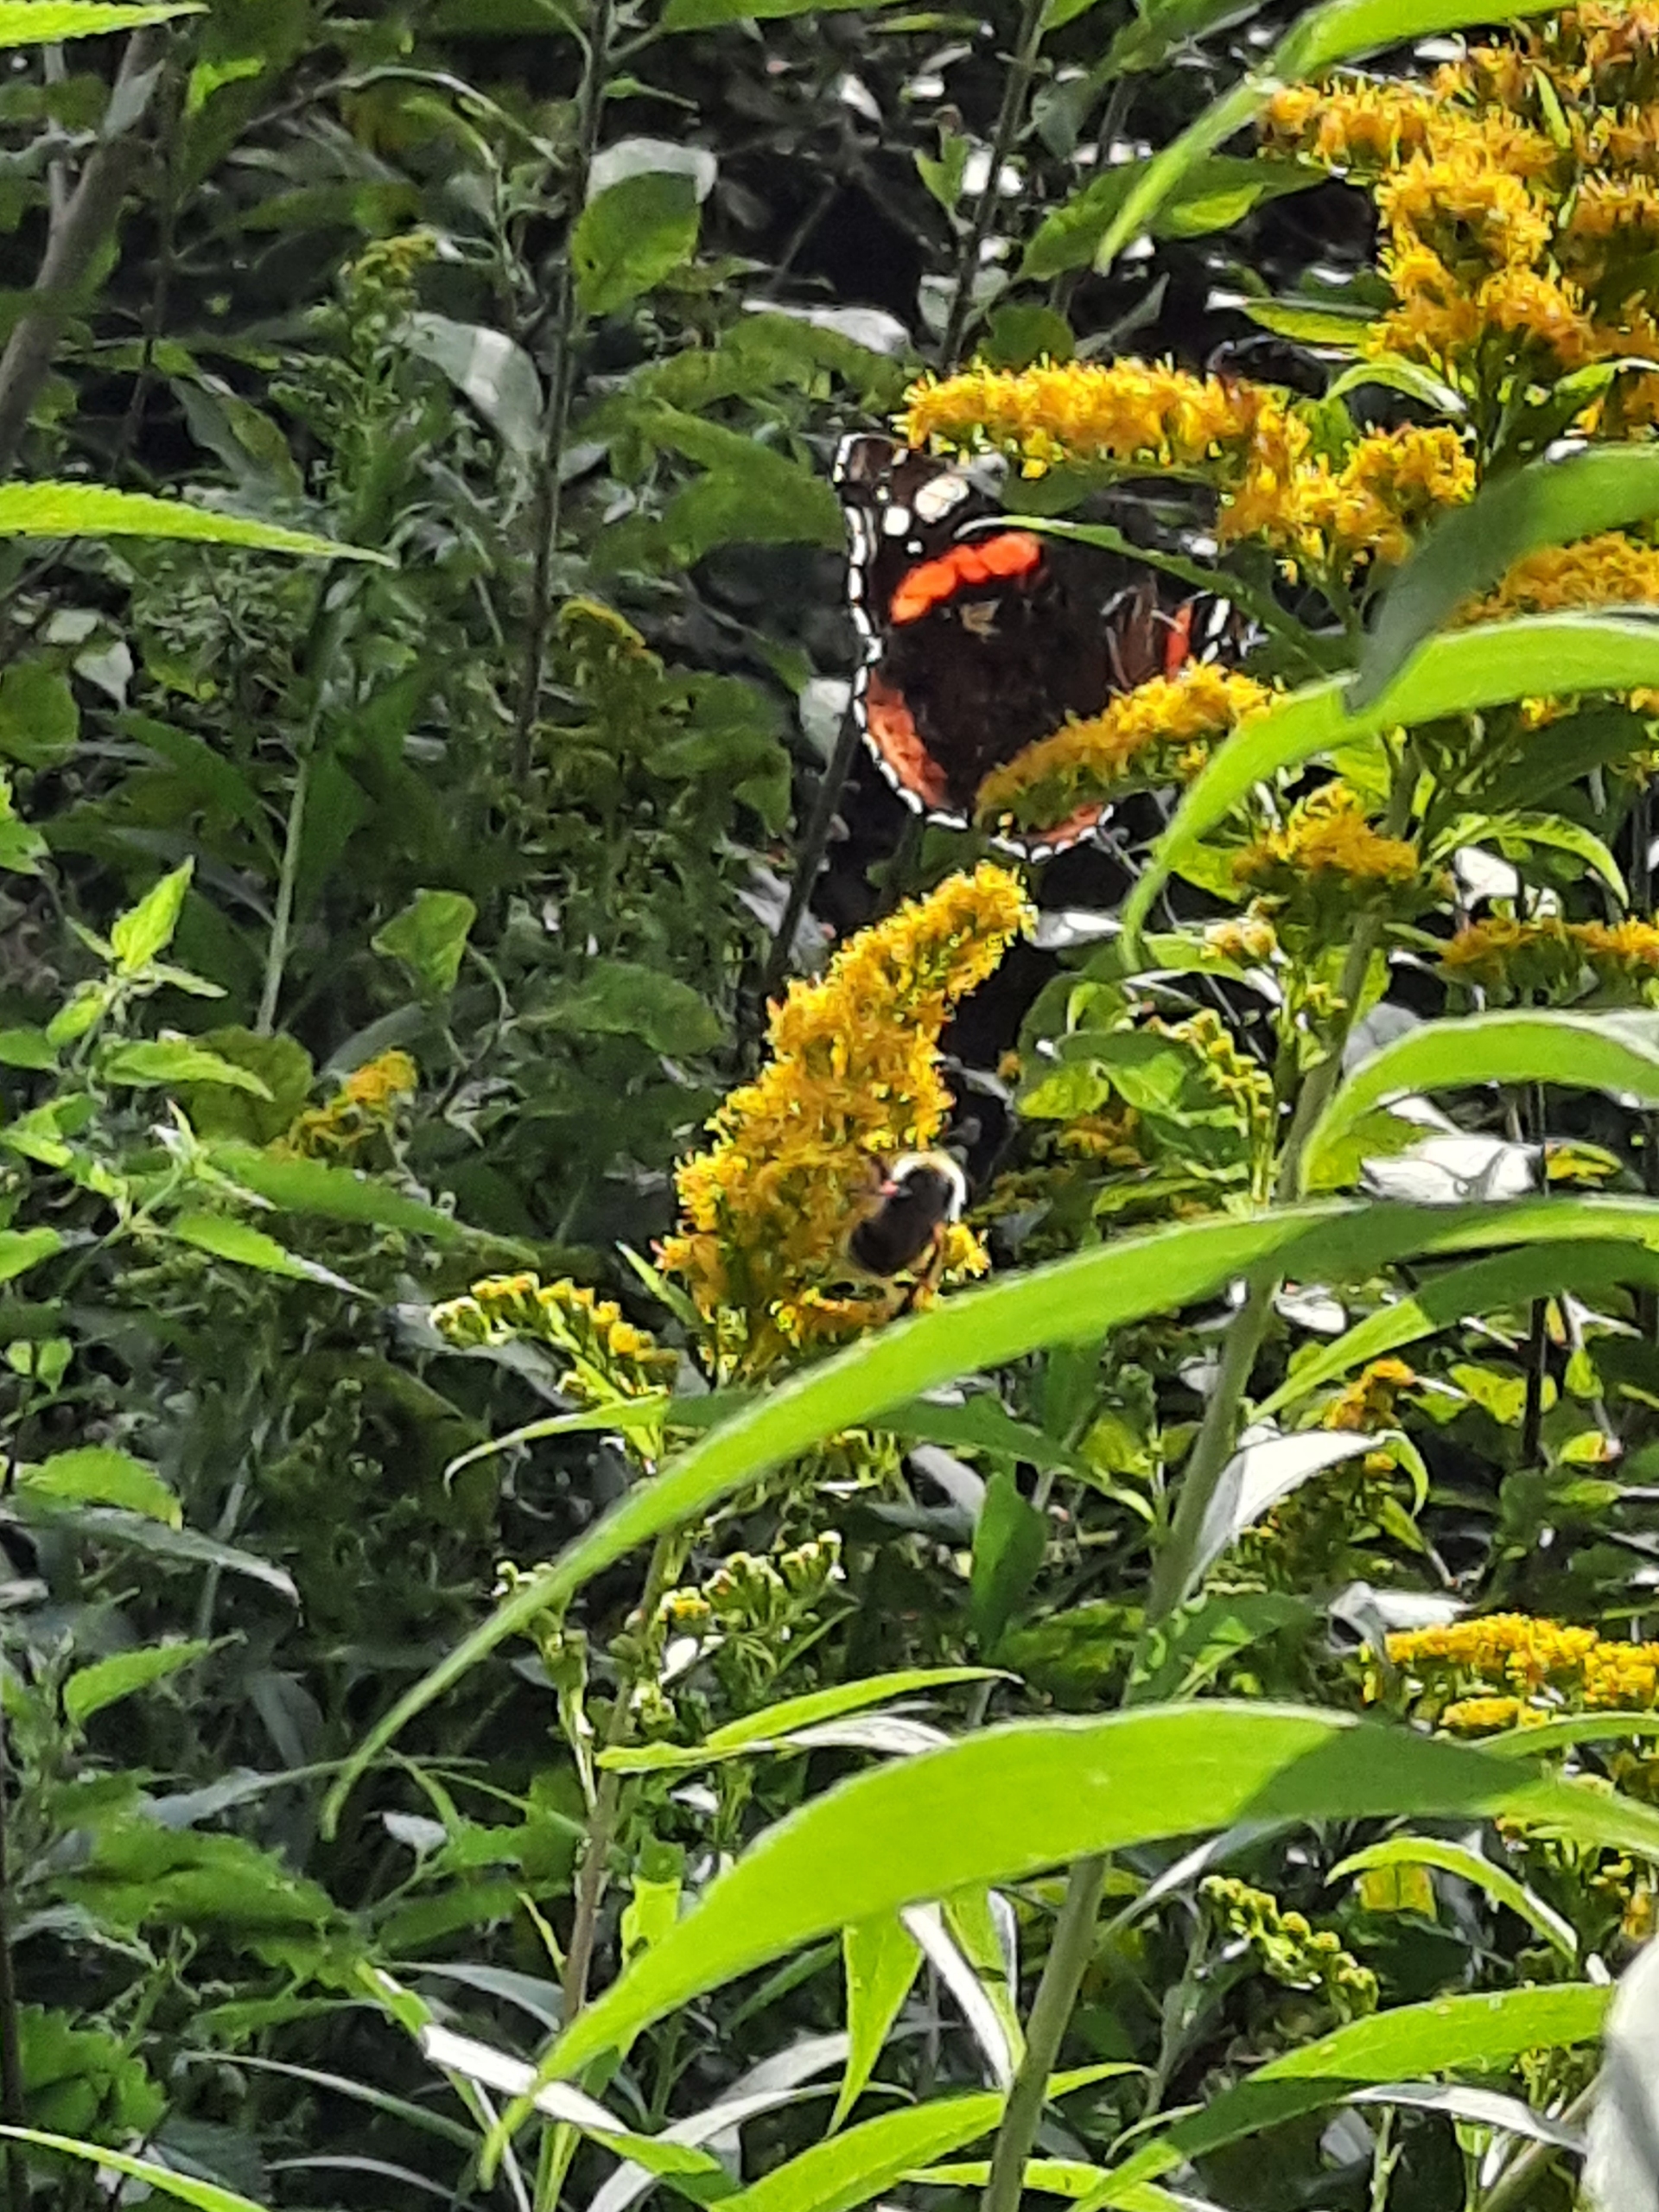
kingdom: Animalia
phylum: Arthropoda
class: Insecta
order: Lepidoptera
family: Nymphalidae
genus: Vanessa
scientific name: Vanessa atalanta
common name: Admiral
